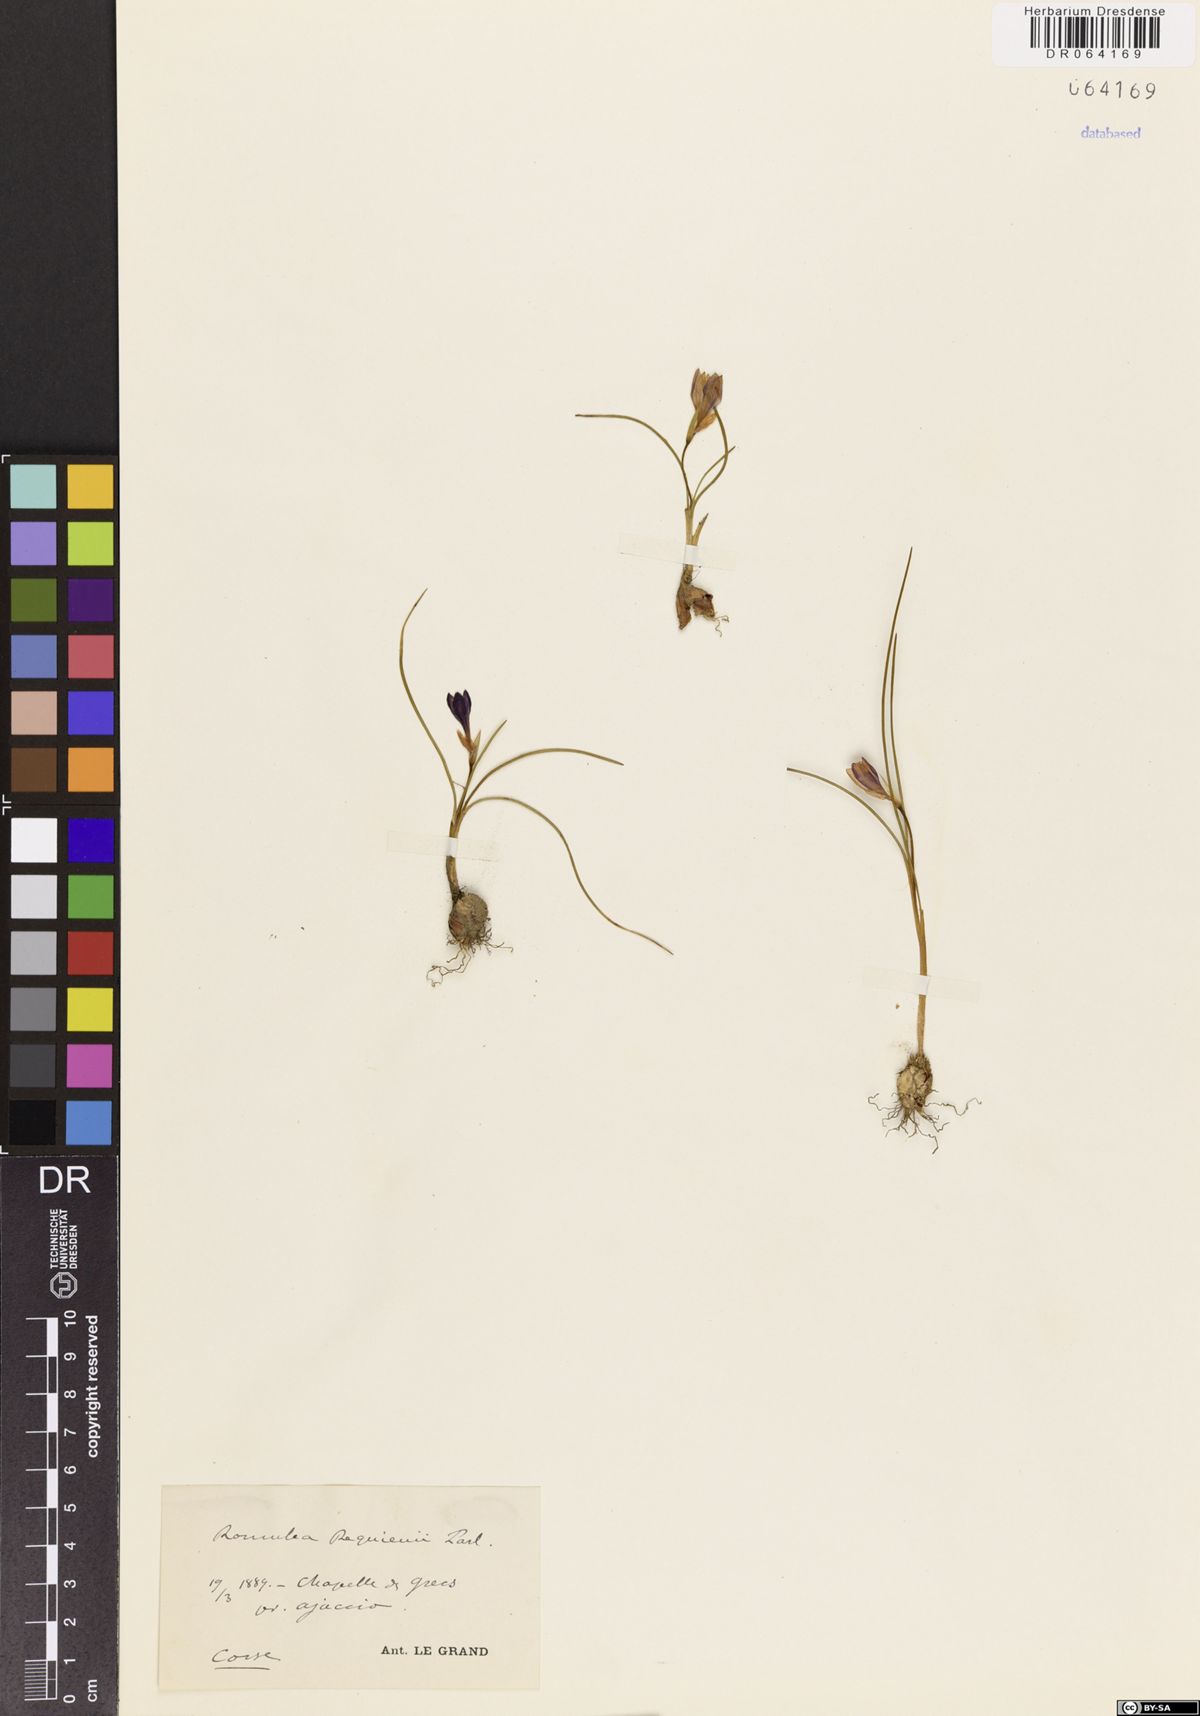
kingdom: Plantae
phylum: Tracheophyta
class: Liliopsida
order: Asparagales
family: Iridaceae
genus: Romulea
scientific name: Romulea requienii
